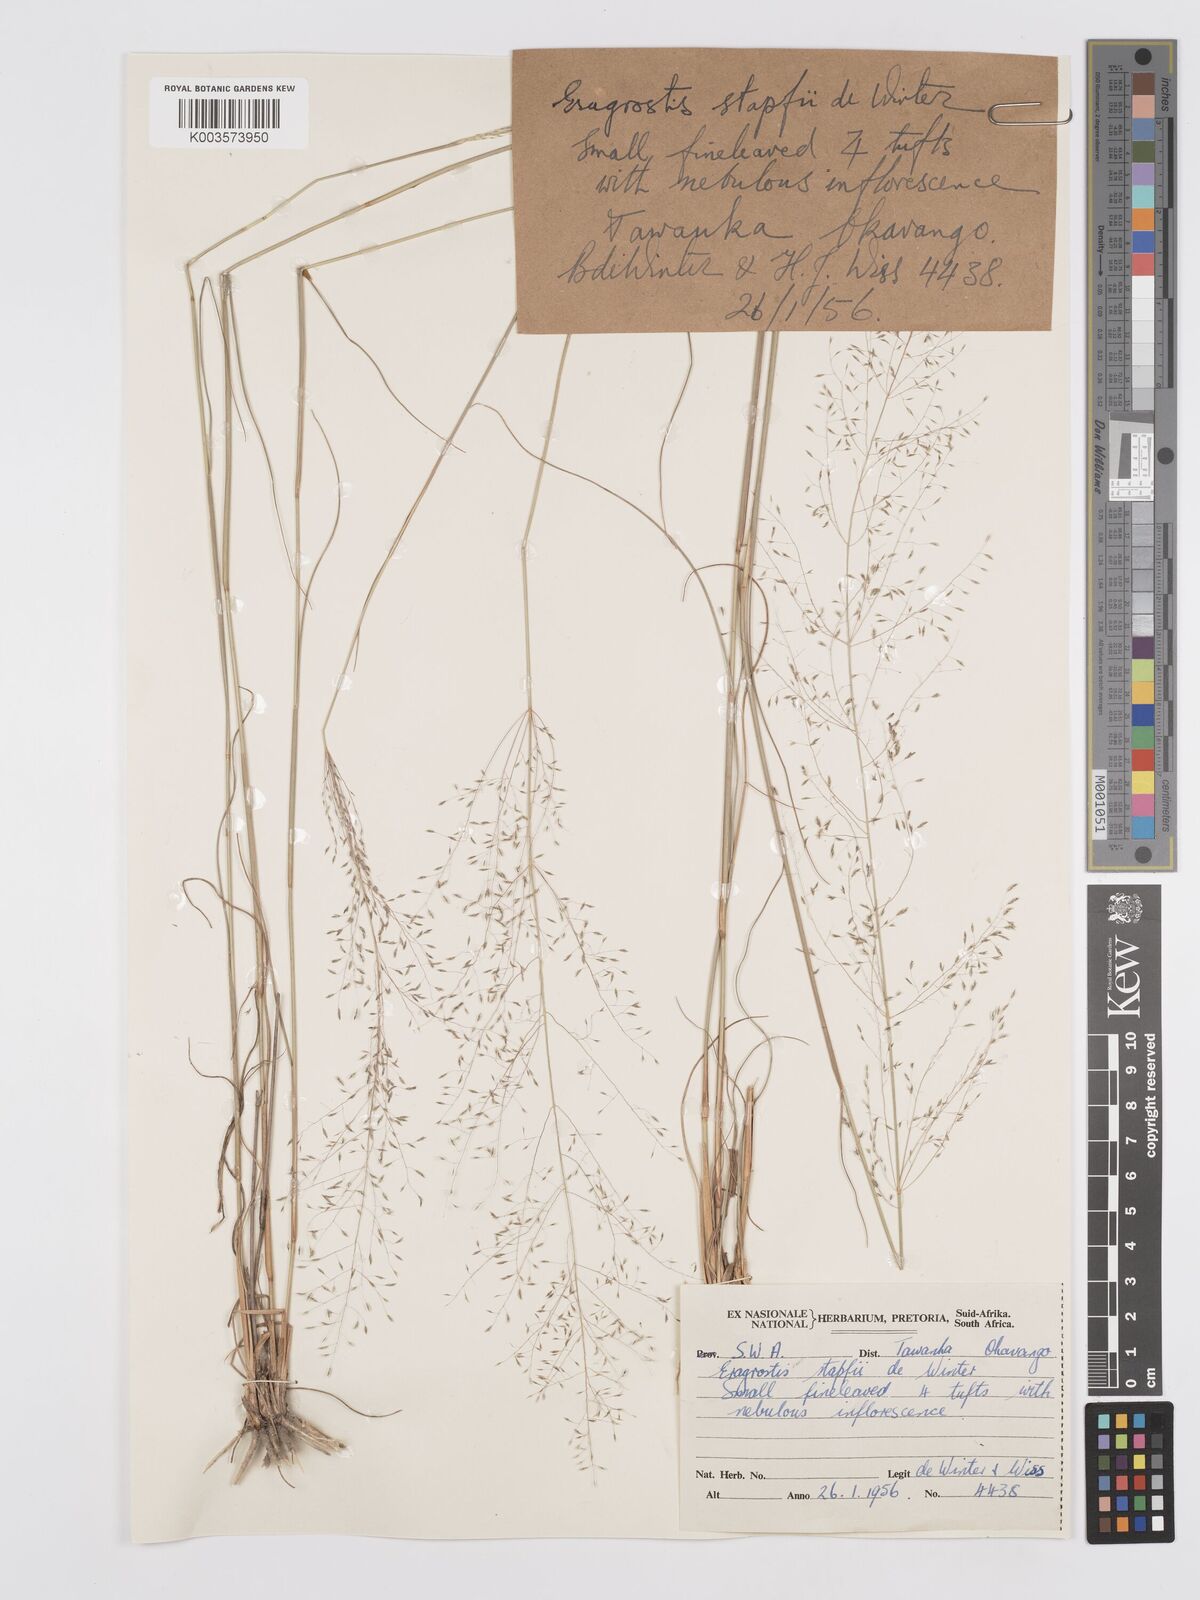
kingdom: Plantae
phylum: Tracheophyta
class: Liliopsida
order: Poales
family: Poaceae
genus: Eragrostis
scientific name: Eragrostis stapfii
